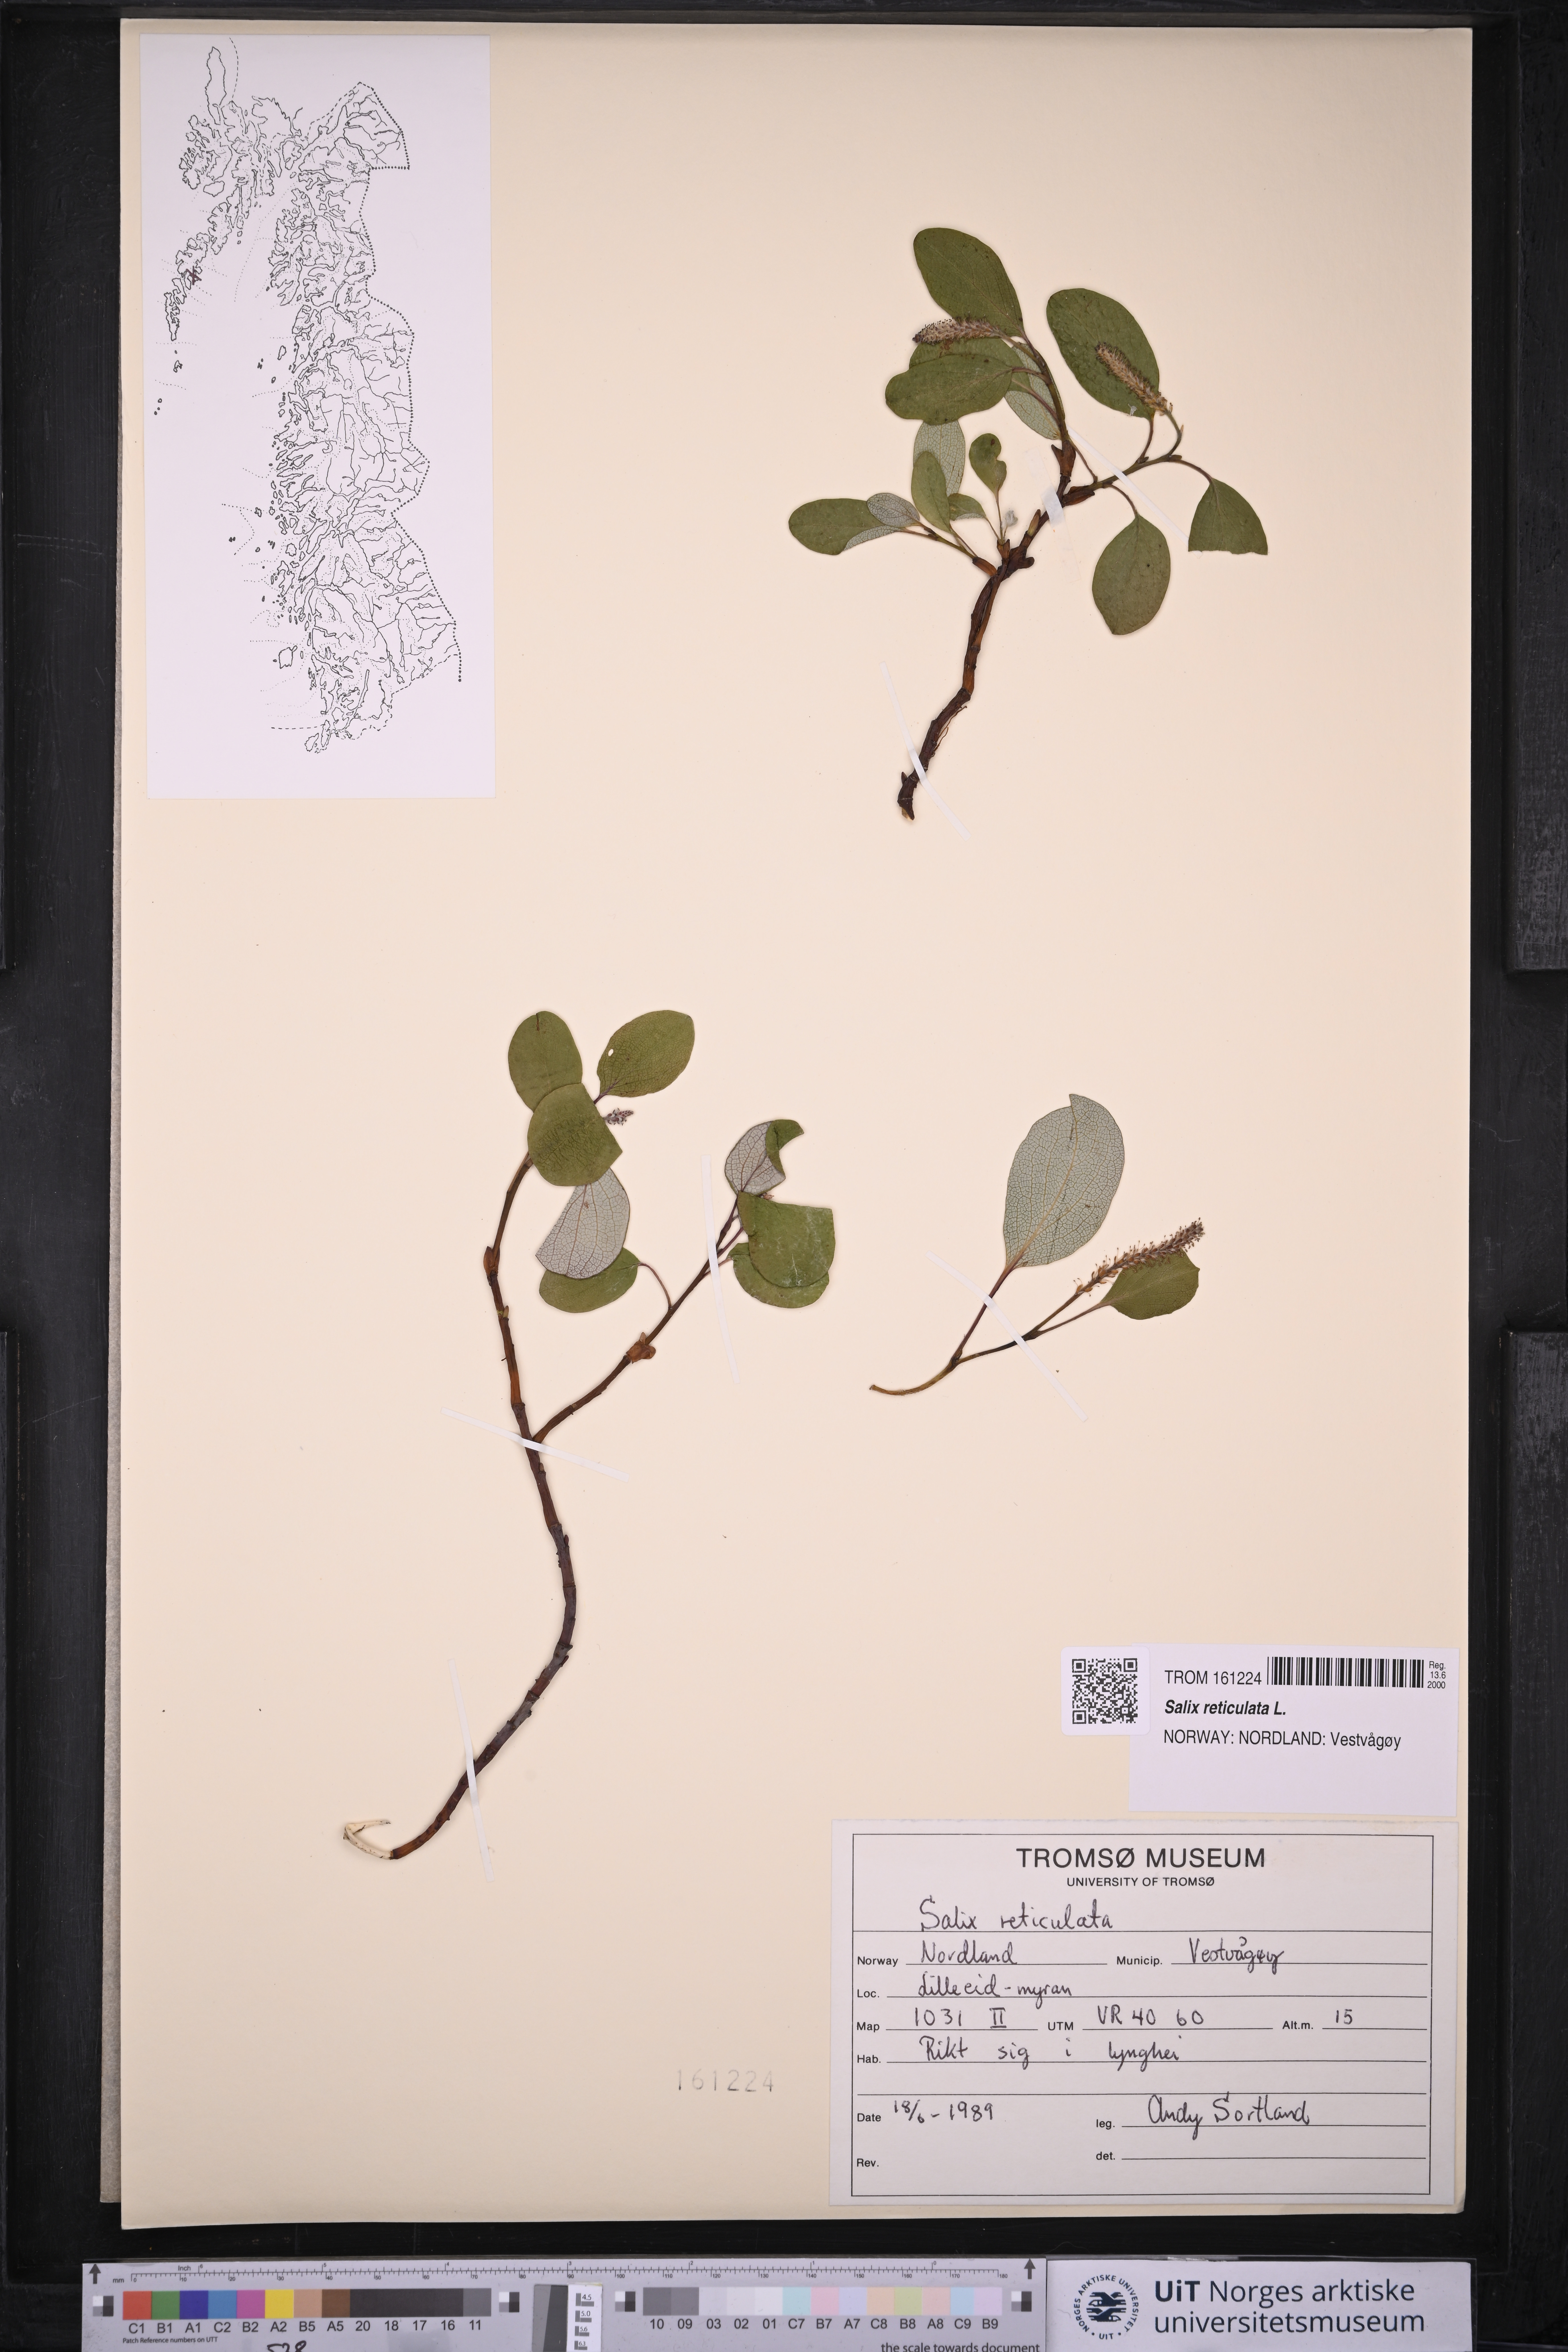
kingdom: Plantae
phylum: Tracheophyta
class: Magnoliopsida
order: Malpighiales
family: Salicaceae
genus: Salix
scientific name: Salix reticulata
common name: Net-leaved willow
